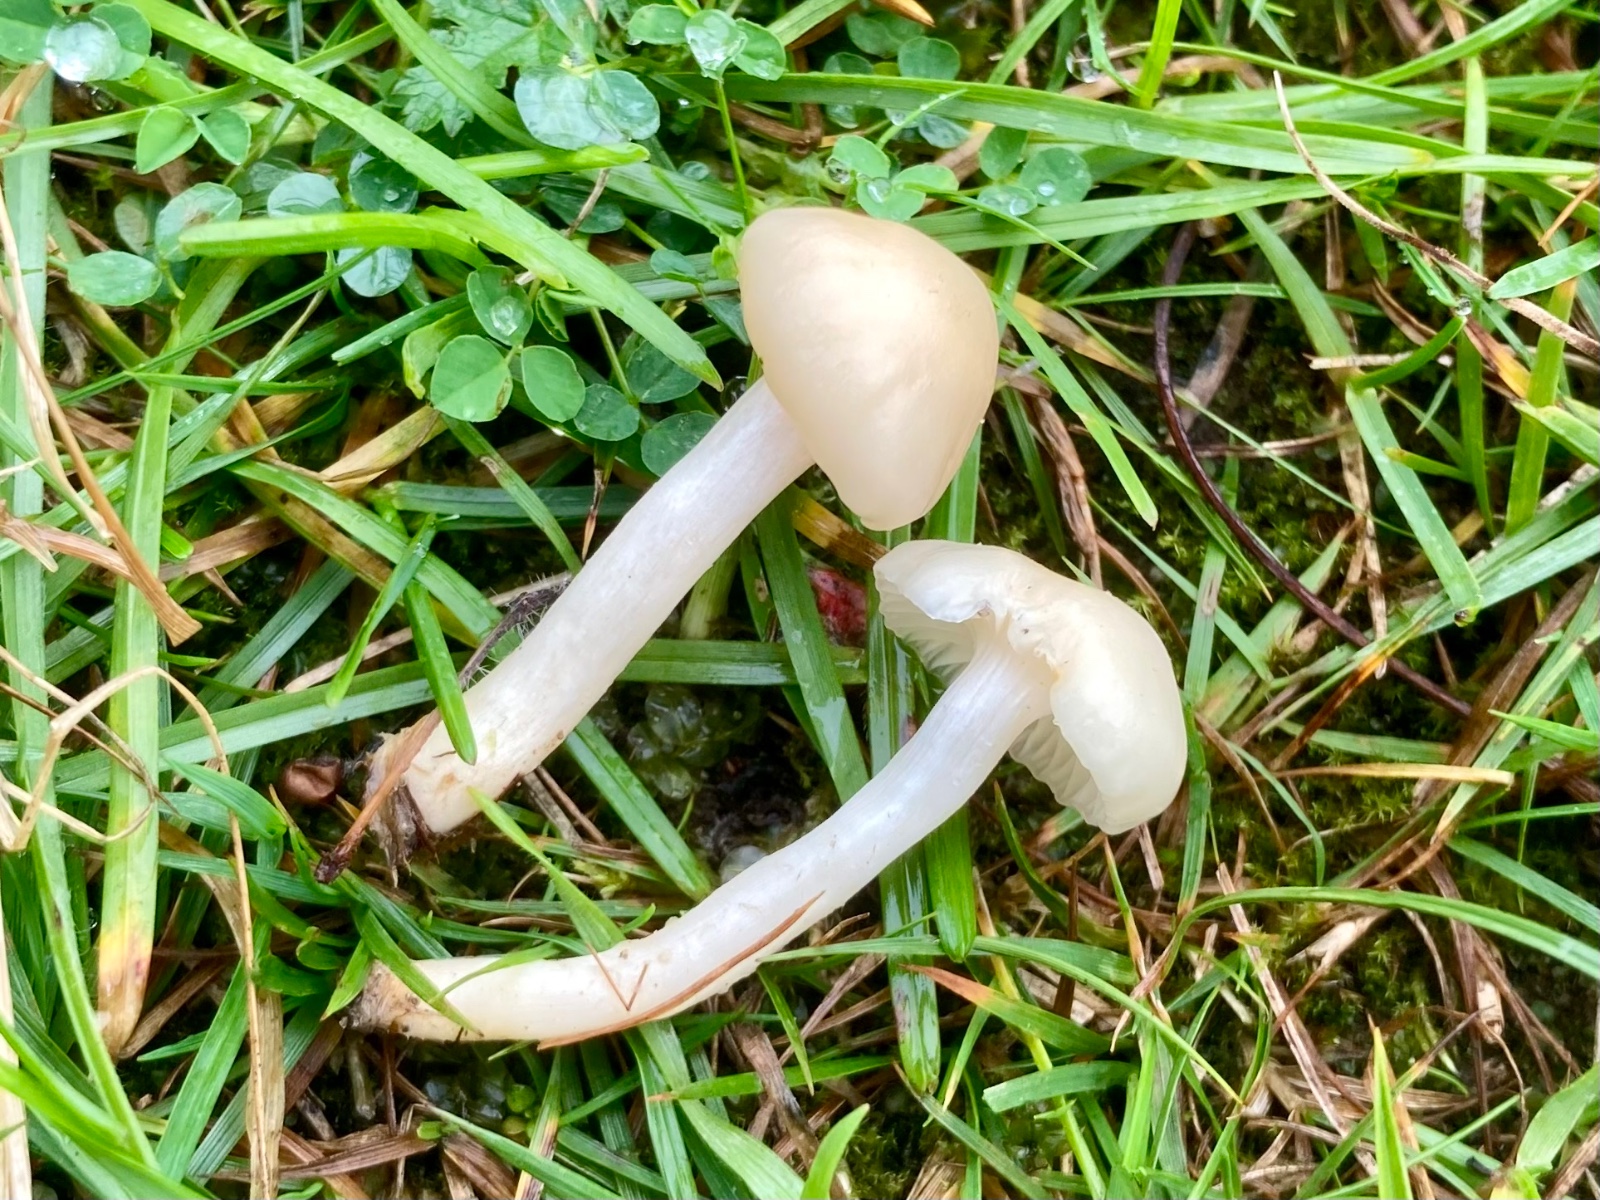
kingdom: Fungi
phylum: Basidiomycota
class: Agaricomycetes
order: Agaricales
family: Hygrophoraceae
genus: Cuphophyllus
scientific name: Cuphophyllus russocoriaceus
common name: ruslæder-vokshat
